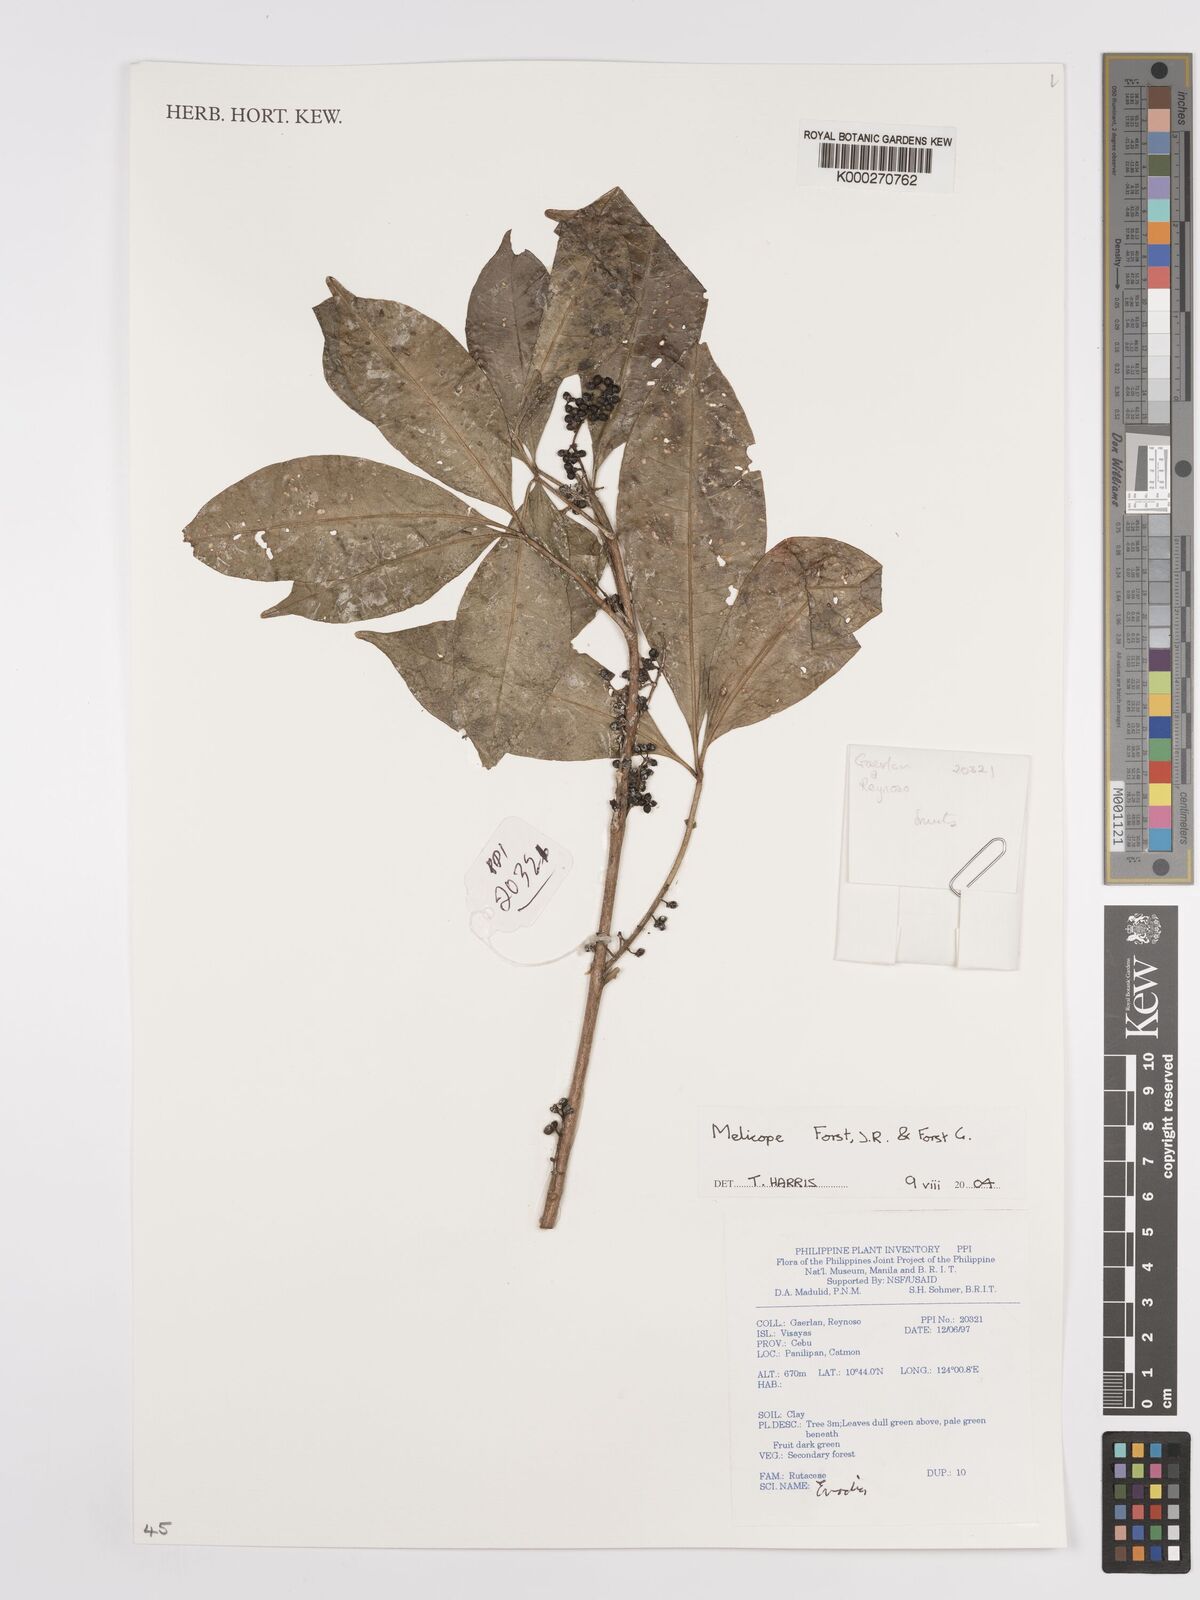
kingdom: Plantae
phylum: Tracheophyta
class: Magnoliopsida
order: Sapindales
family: Rutaceae
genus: Melicope
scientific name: Melicope
